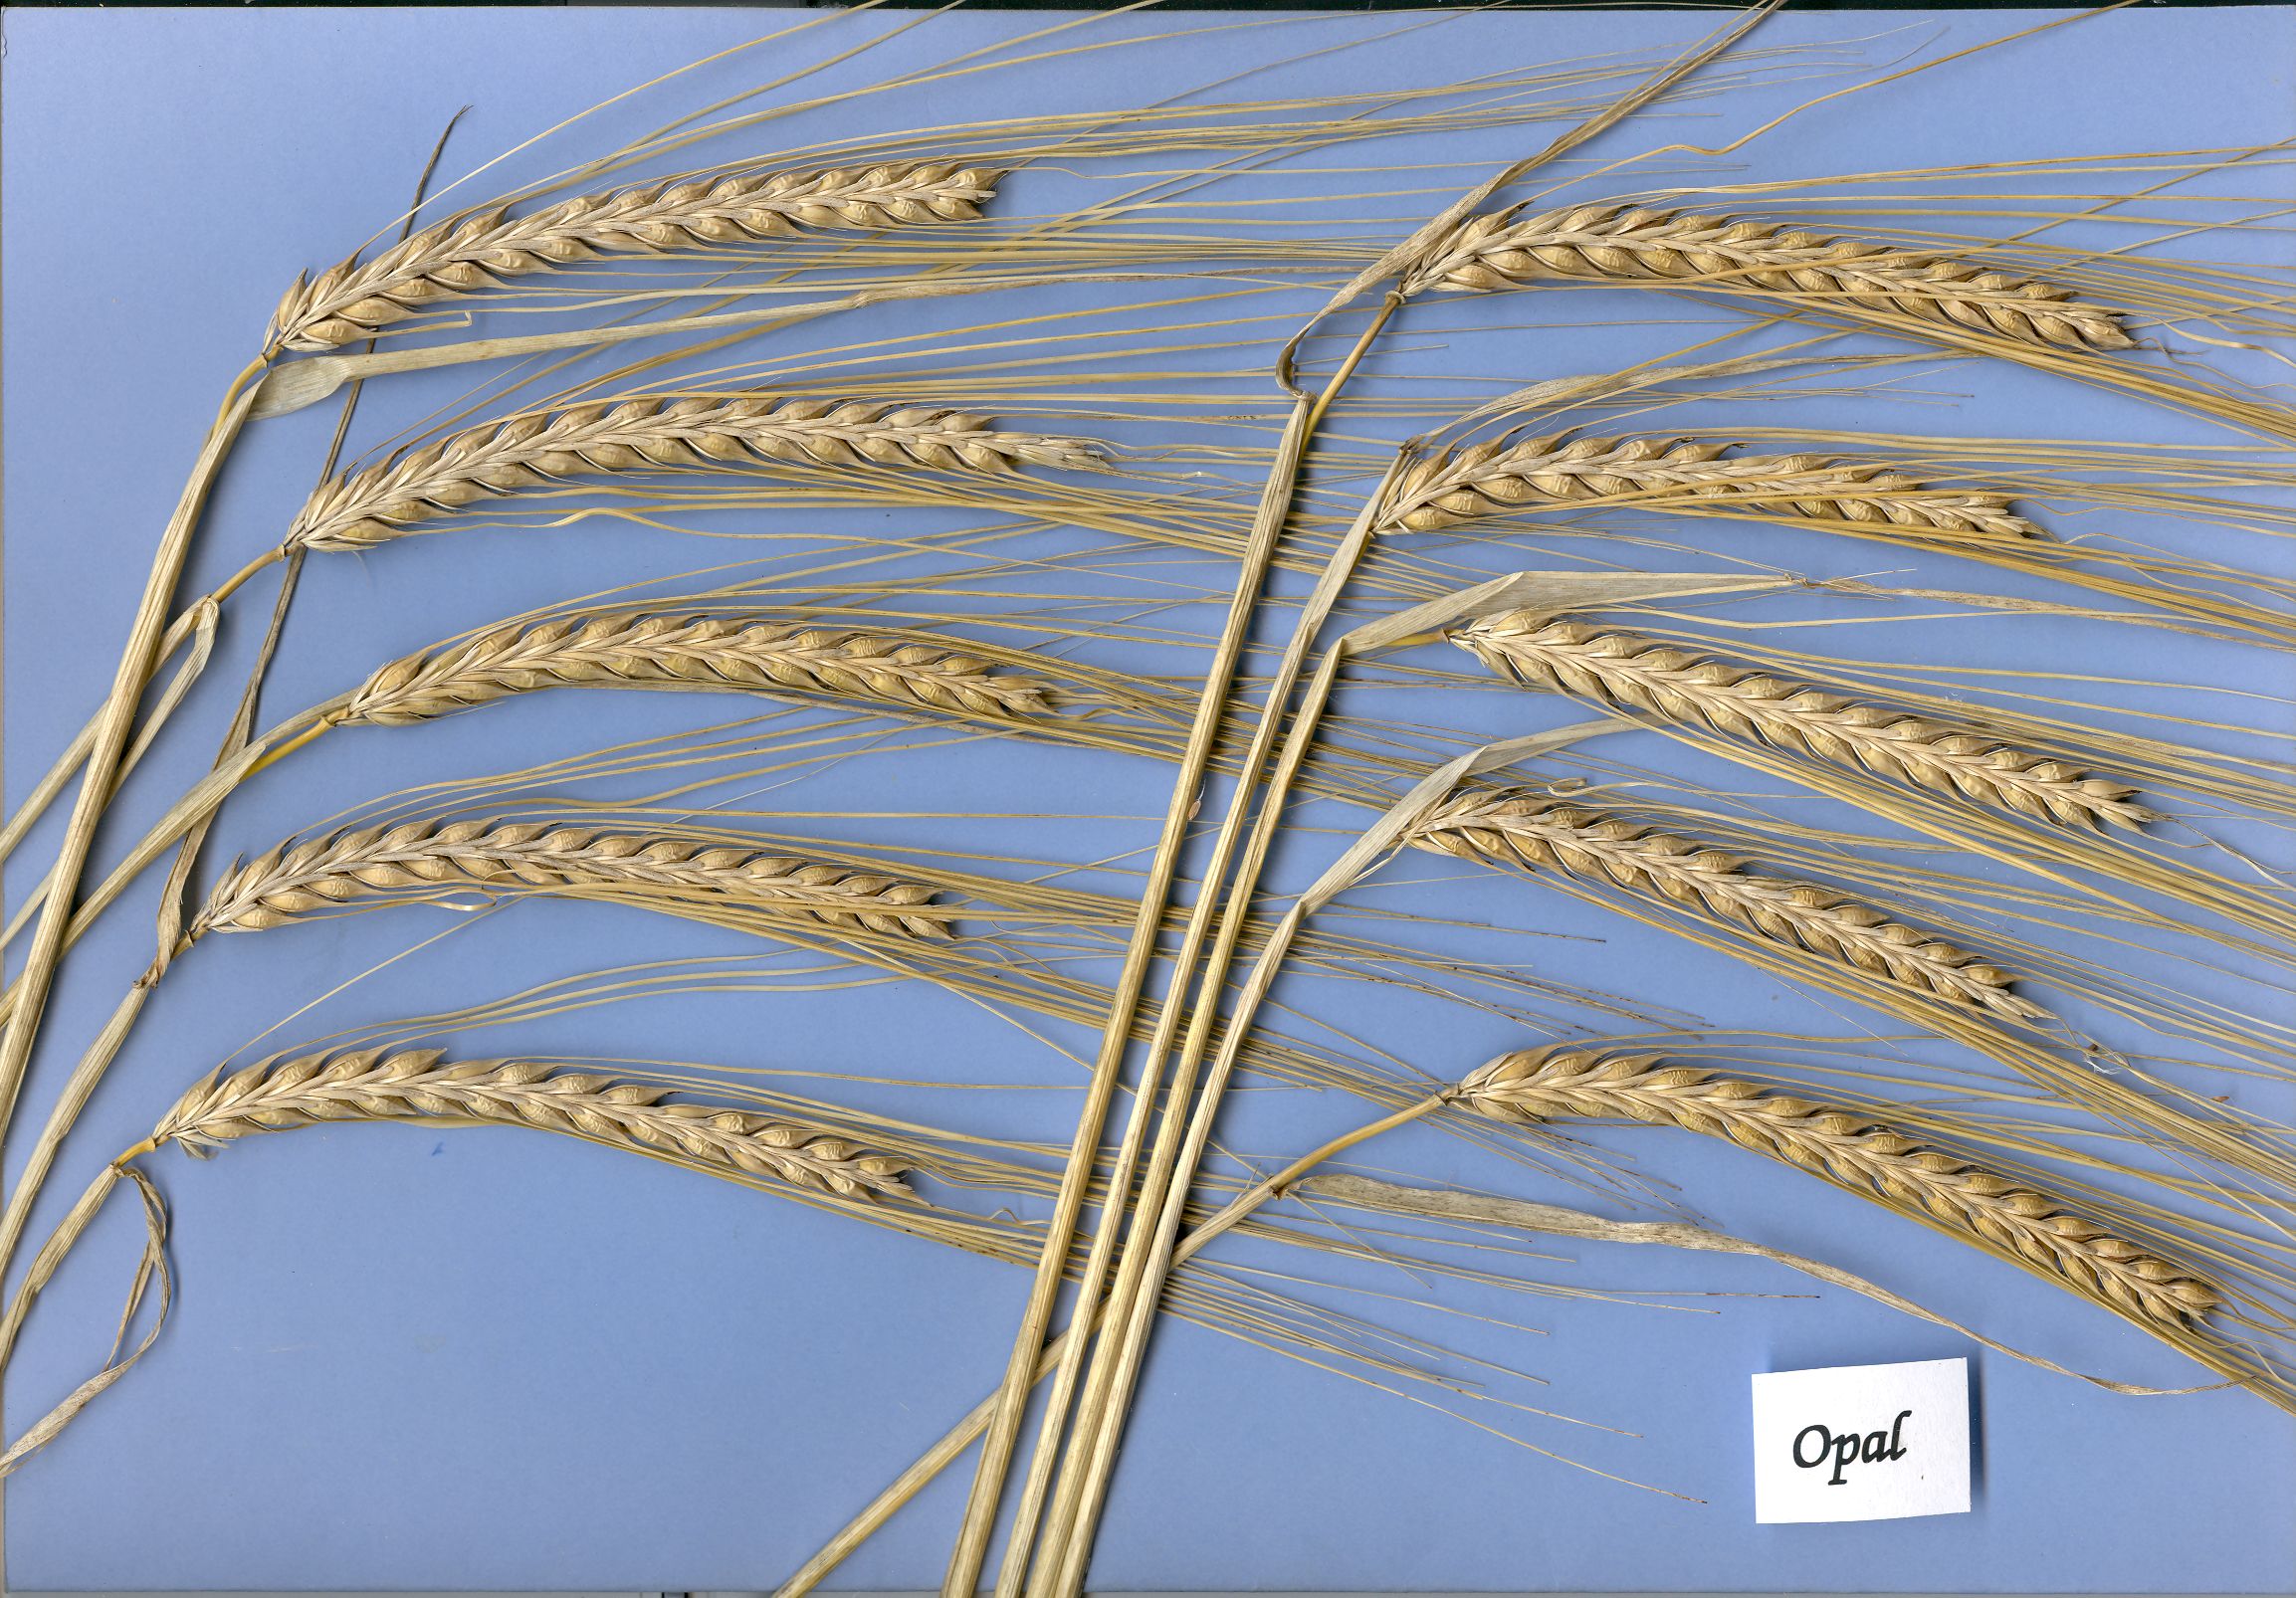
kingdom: Plantae
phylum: Tracheophyta
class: Liliopsida
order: Poales
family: Poaceae
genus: Hordeum
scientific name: Hordeum vulgare
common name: Common barley
